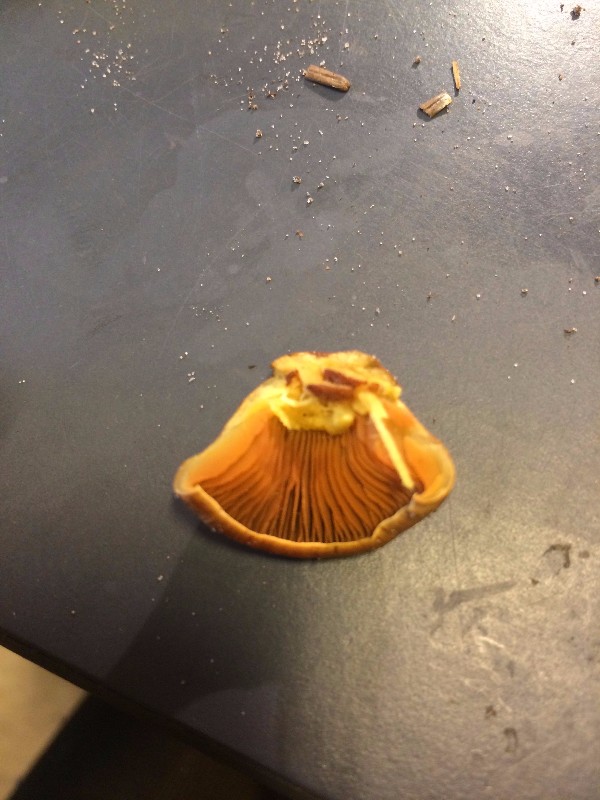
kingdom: Fungi
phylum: Basidiomycota
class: Agaricomycetes
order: Agaricales
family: Cortinariaceae
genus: Cortinarius
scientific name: Cortinarius
